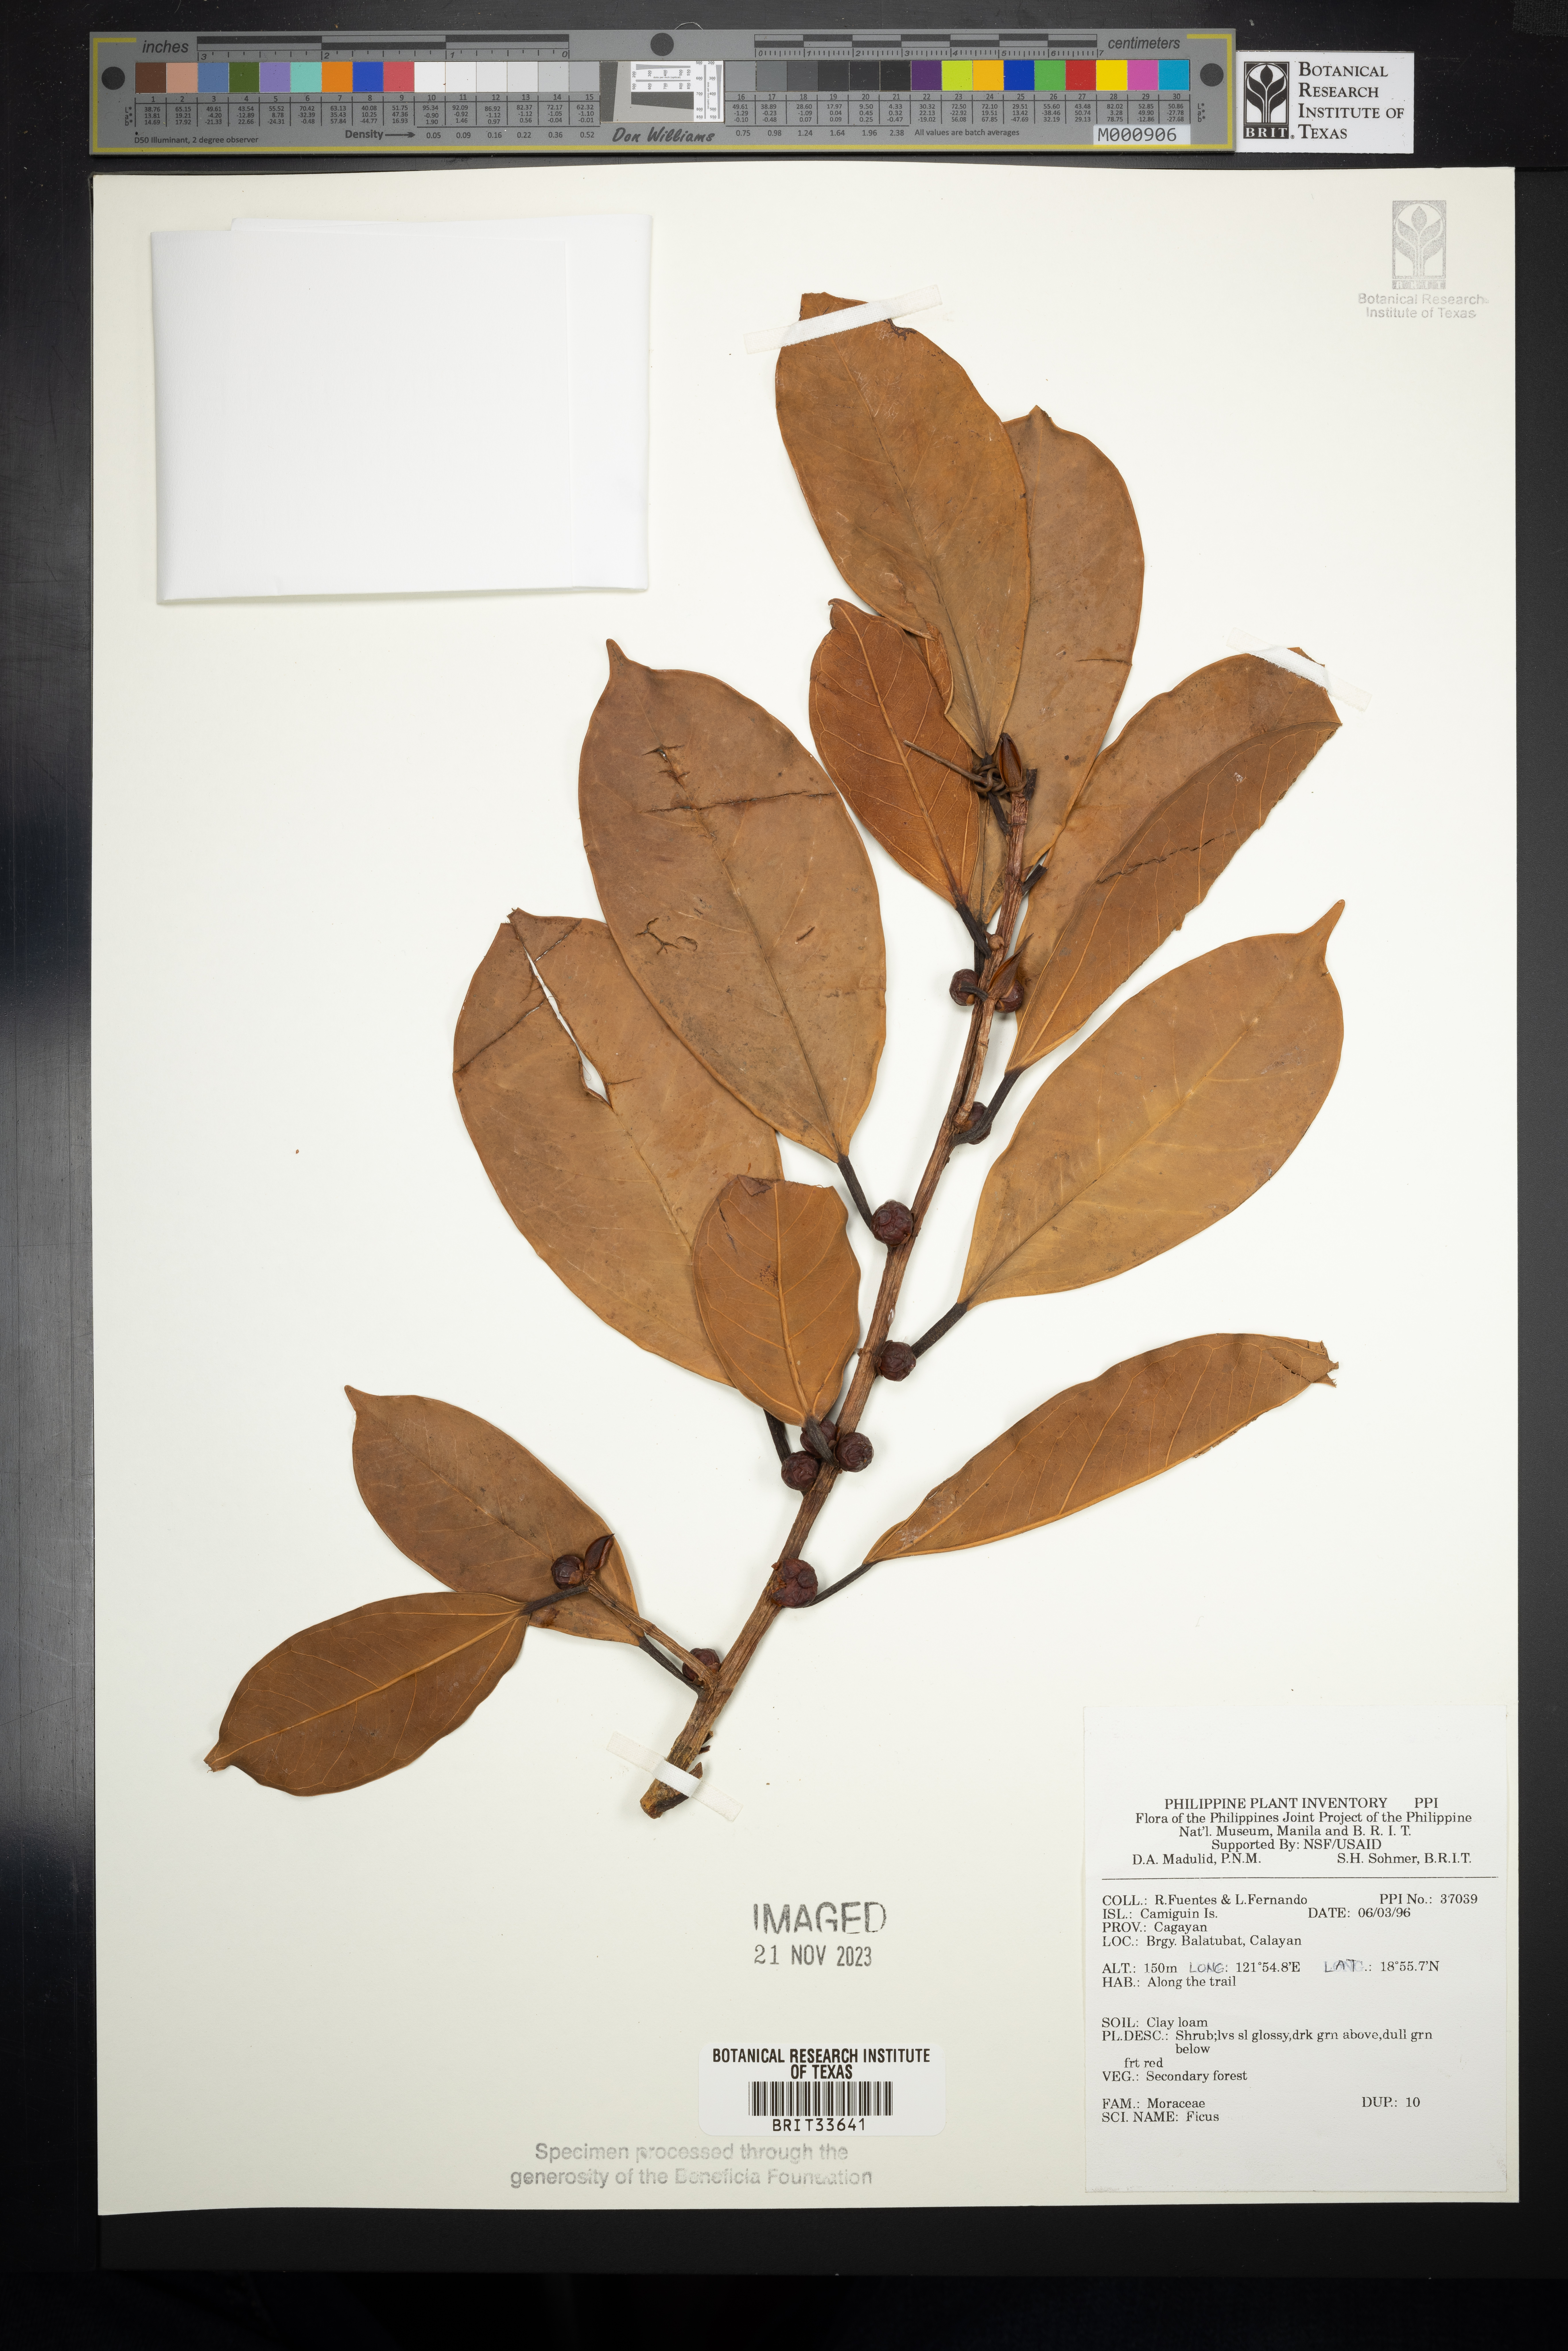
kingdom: Plantae
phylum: Tracheophyta
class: Magnoliopsida
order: Rosales
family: Moraceae
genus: Ficus
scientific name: Ficus
